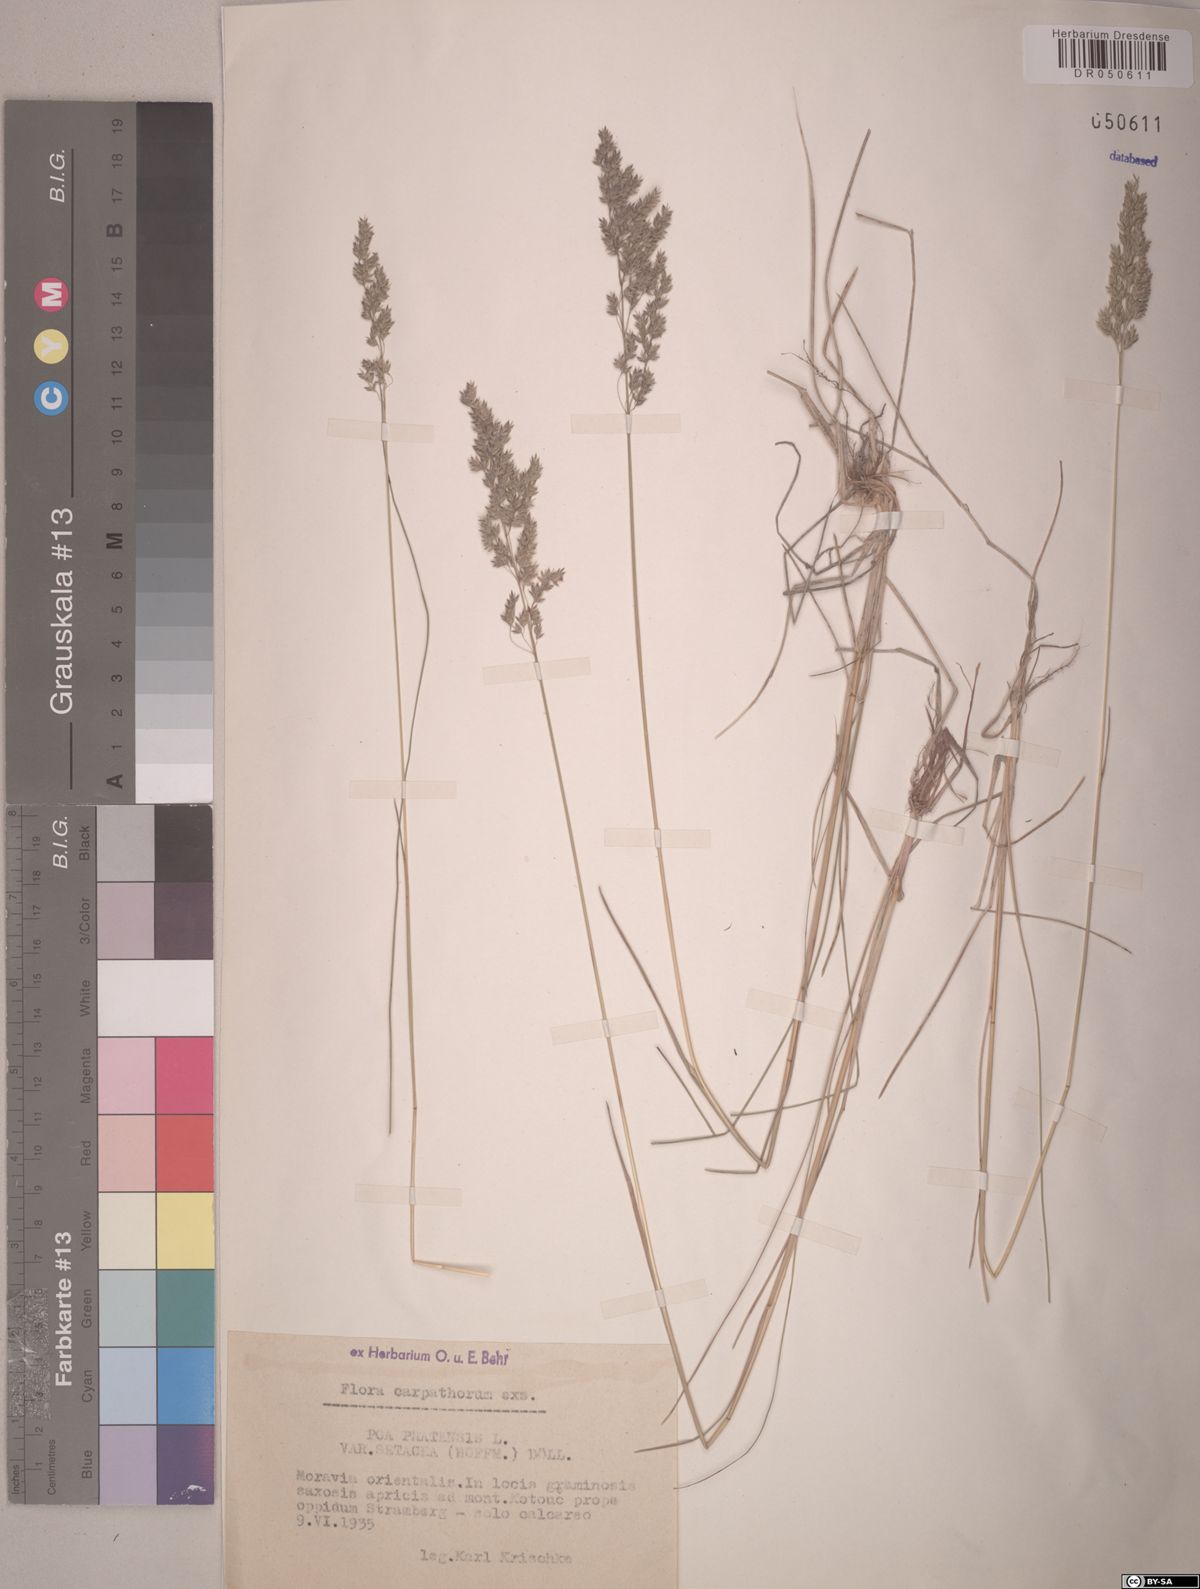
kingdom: Plantae
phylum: Tracheophyta
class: Liliopsida
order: Poales
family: Poaceae
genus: Poa
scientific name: Poa pratensis
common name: Kentucky bluegrass
